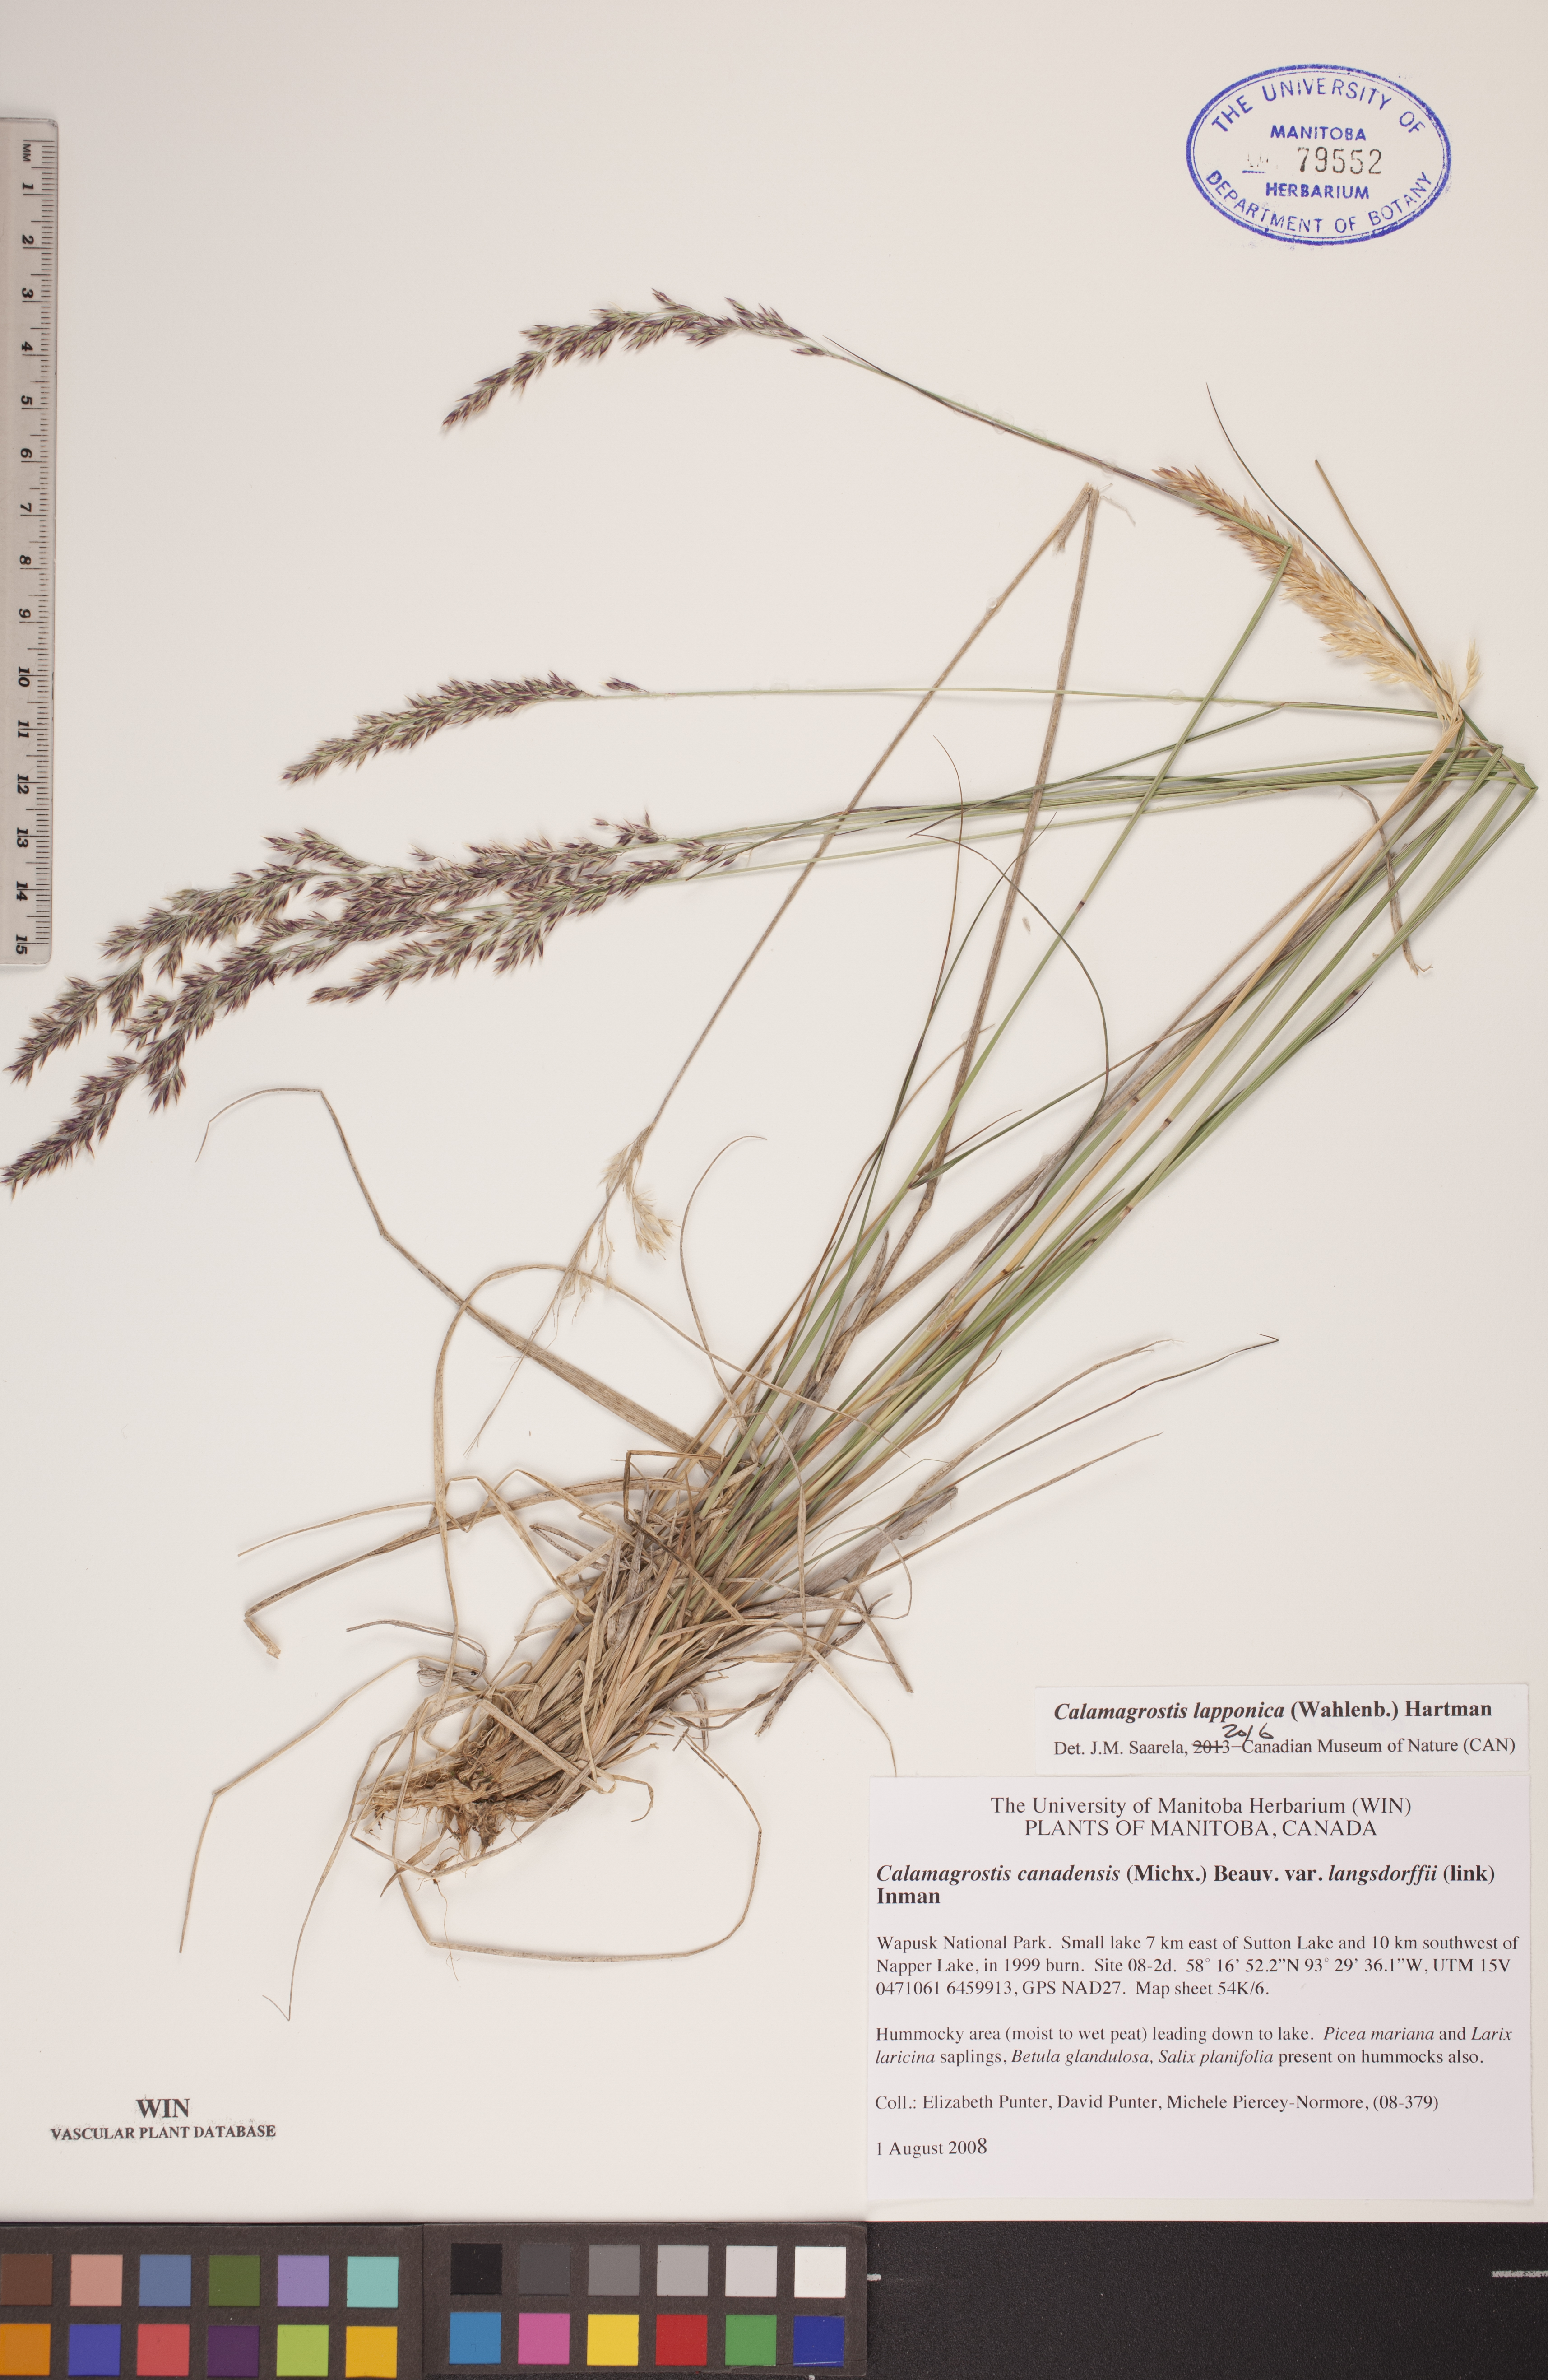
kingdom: Plantae
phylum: Tracheophyta
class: Liliopsida
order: Poales
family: Poaceae
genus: Calamagrostis
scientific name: Calamagrostis lapponica
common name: Lapland reedgrass
